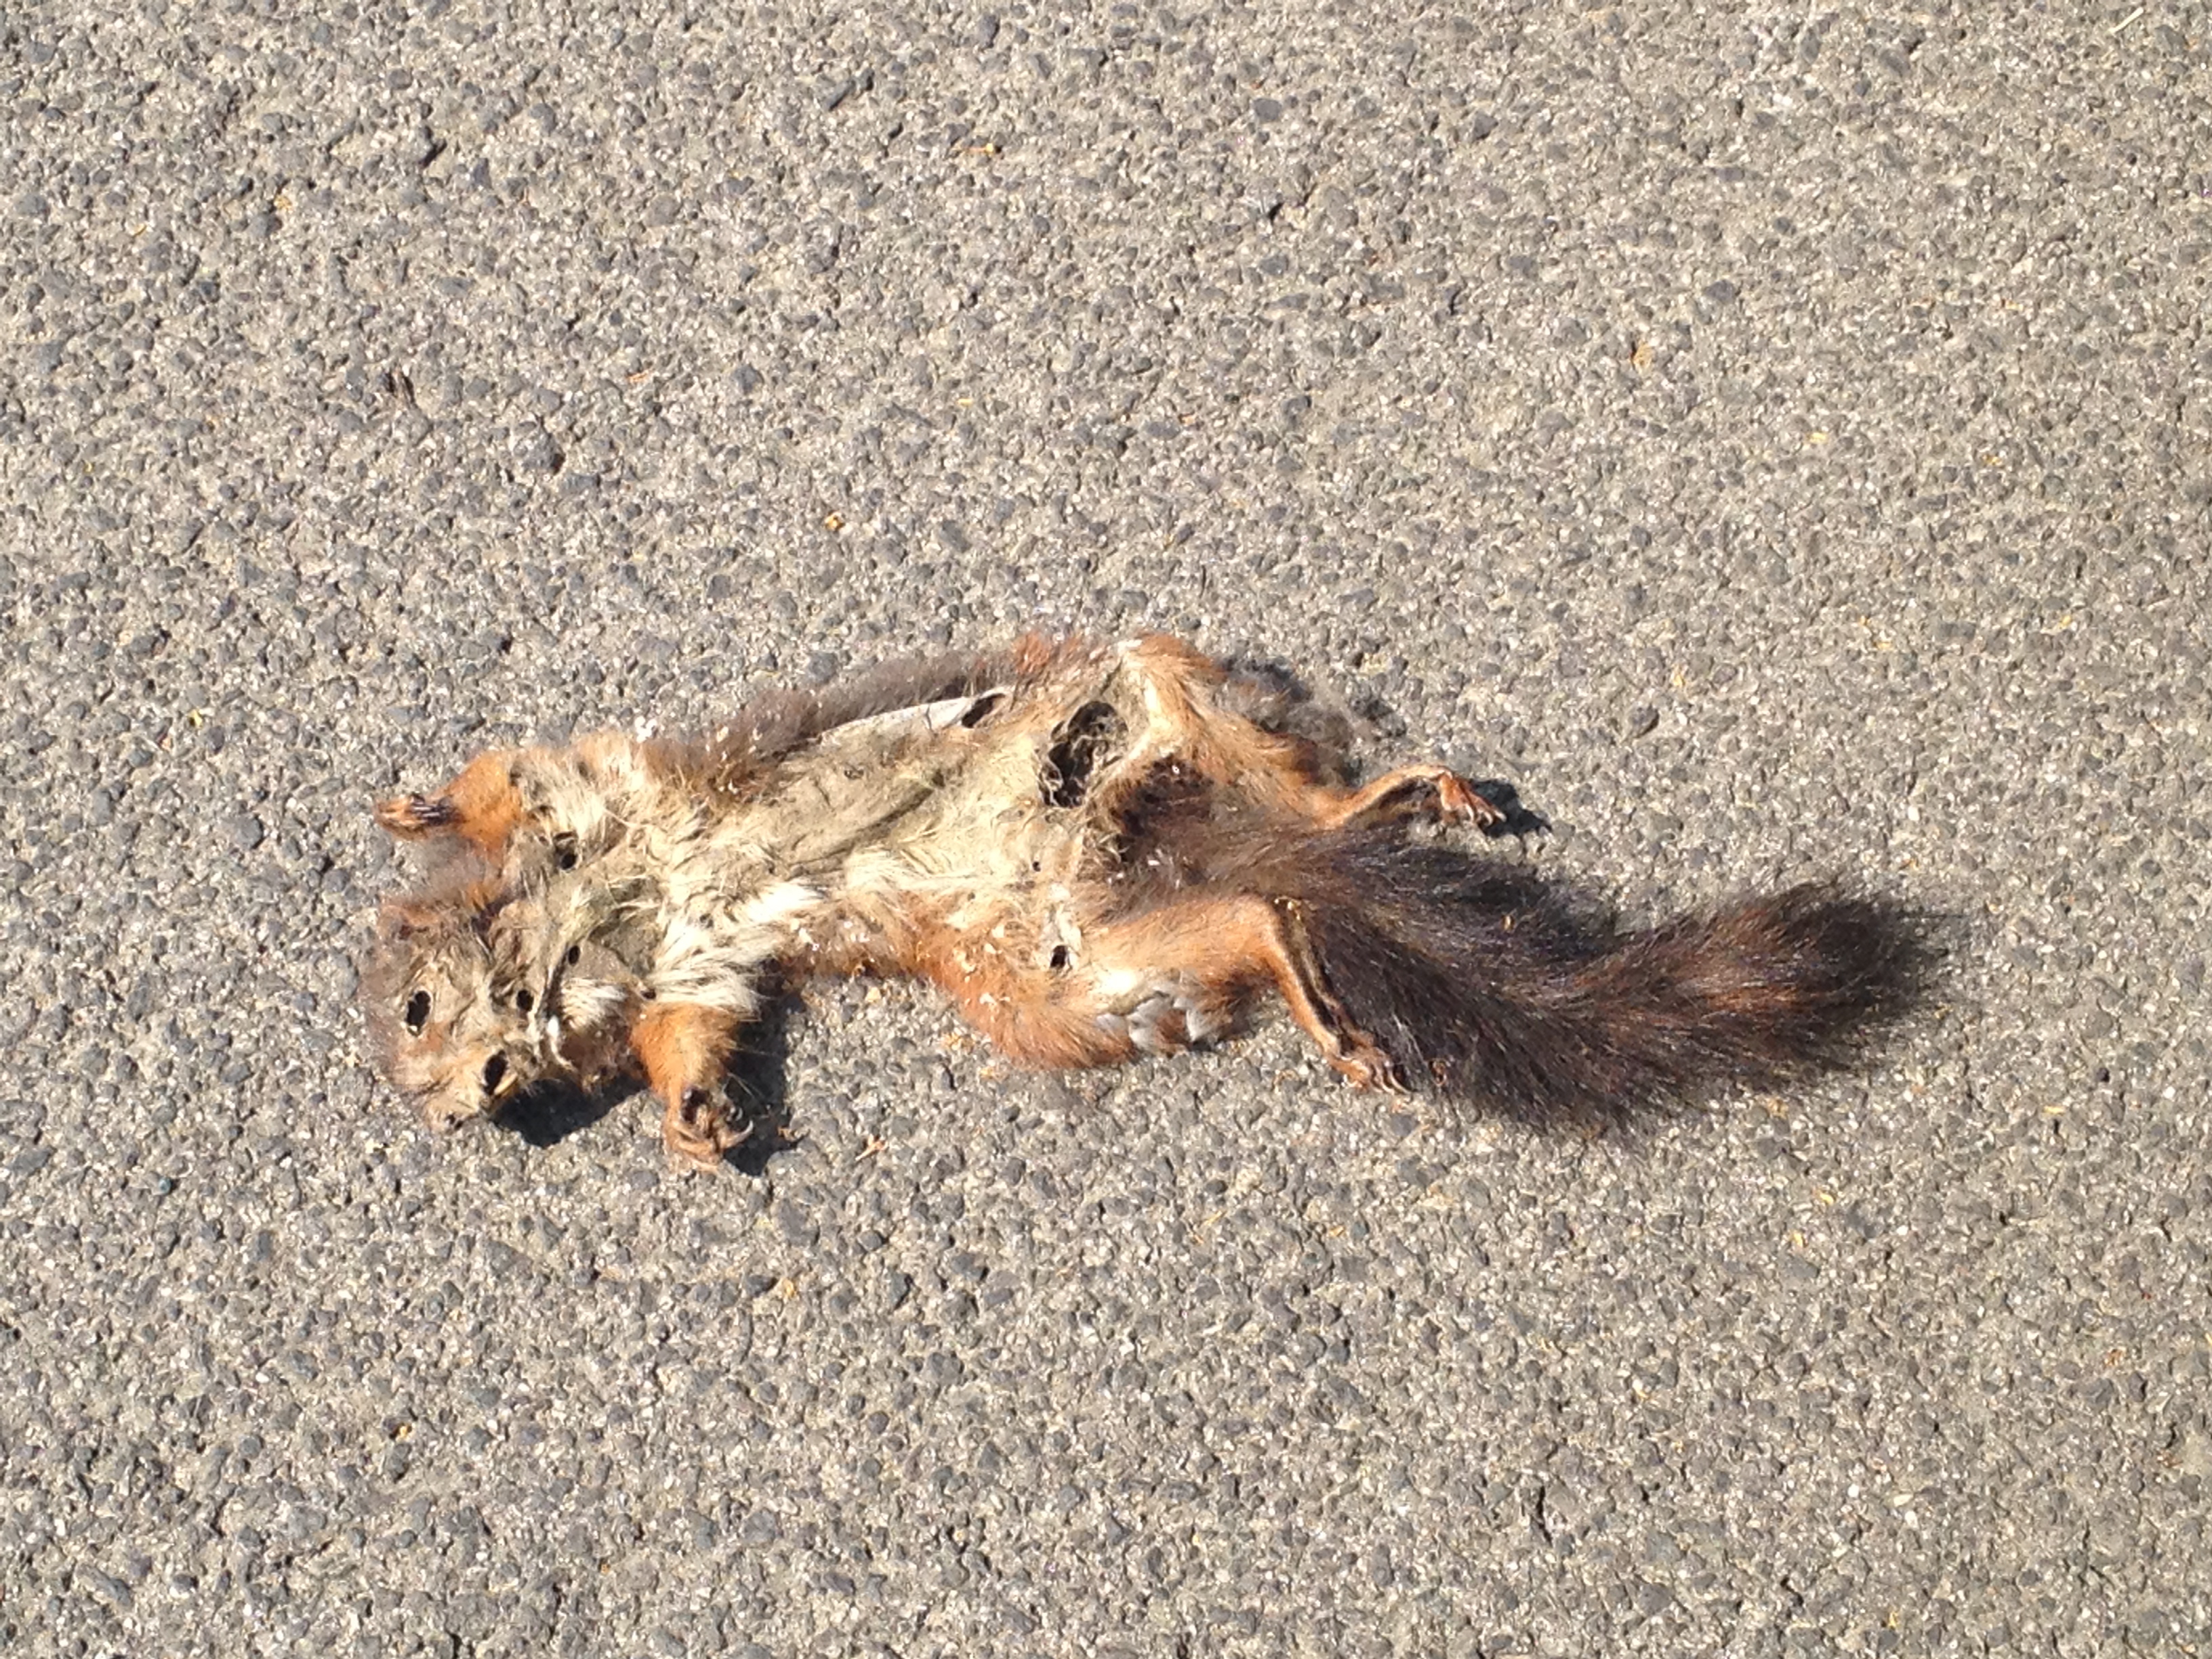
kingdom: Animalia
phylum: Chordata
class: Mammalia
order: Rodentia
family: Sciuridae
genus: Sciurus
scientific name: Sciurus vulgaris
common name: Eurasian red squirrel
